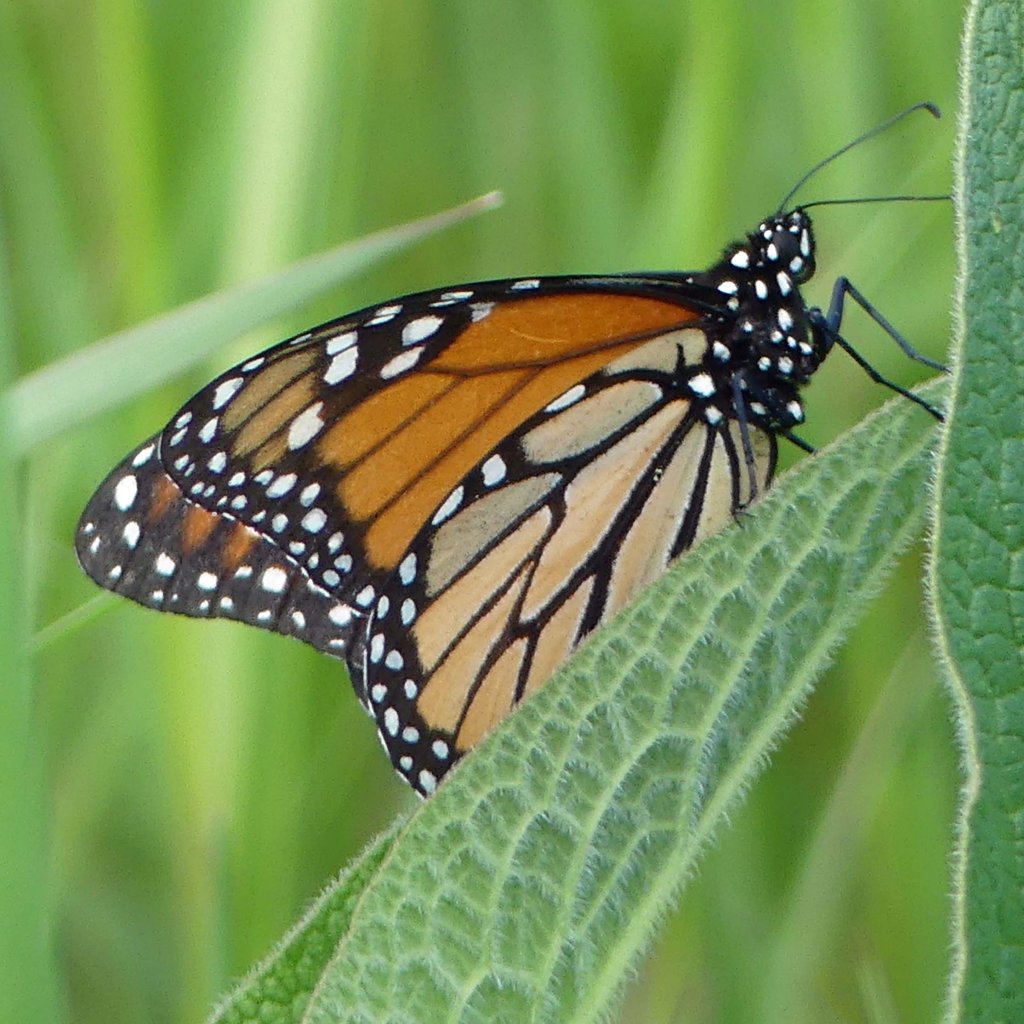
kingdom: Animalia
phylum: Arthropoda
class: Insecta
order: Lepidoptera
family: Nymphalidae
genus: Danaus
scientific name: Danaus plexippus
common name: Monarch
